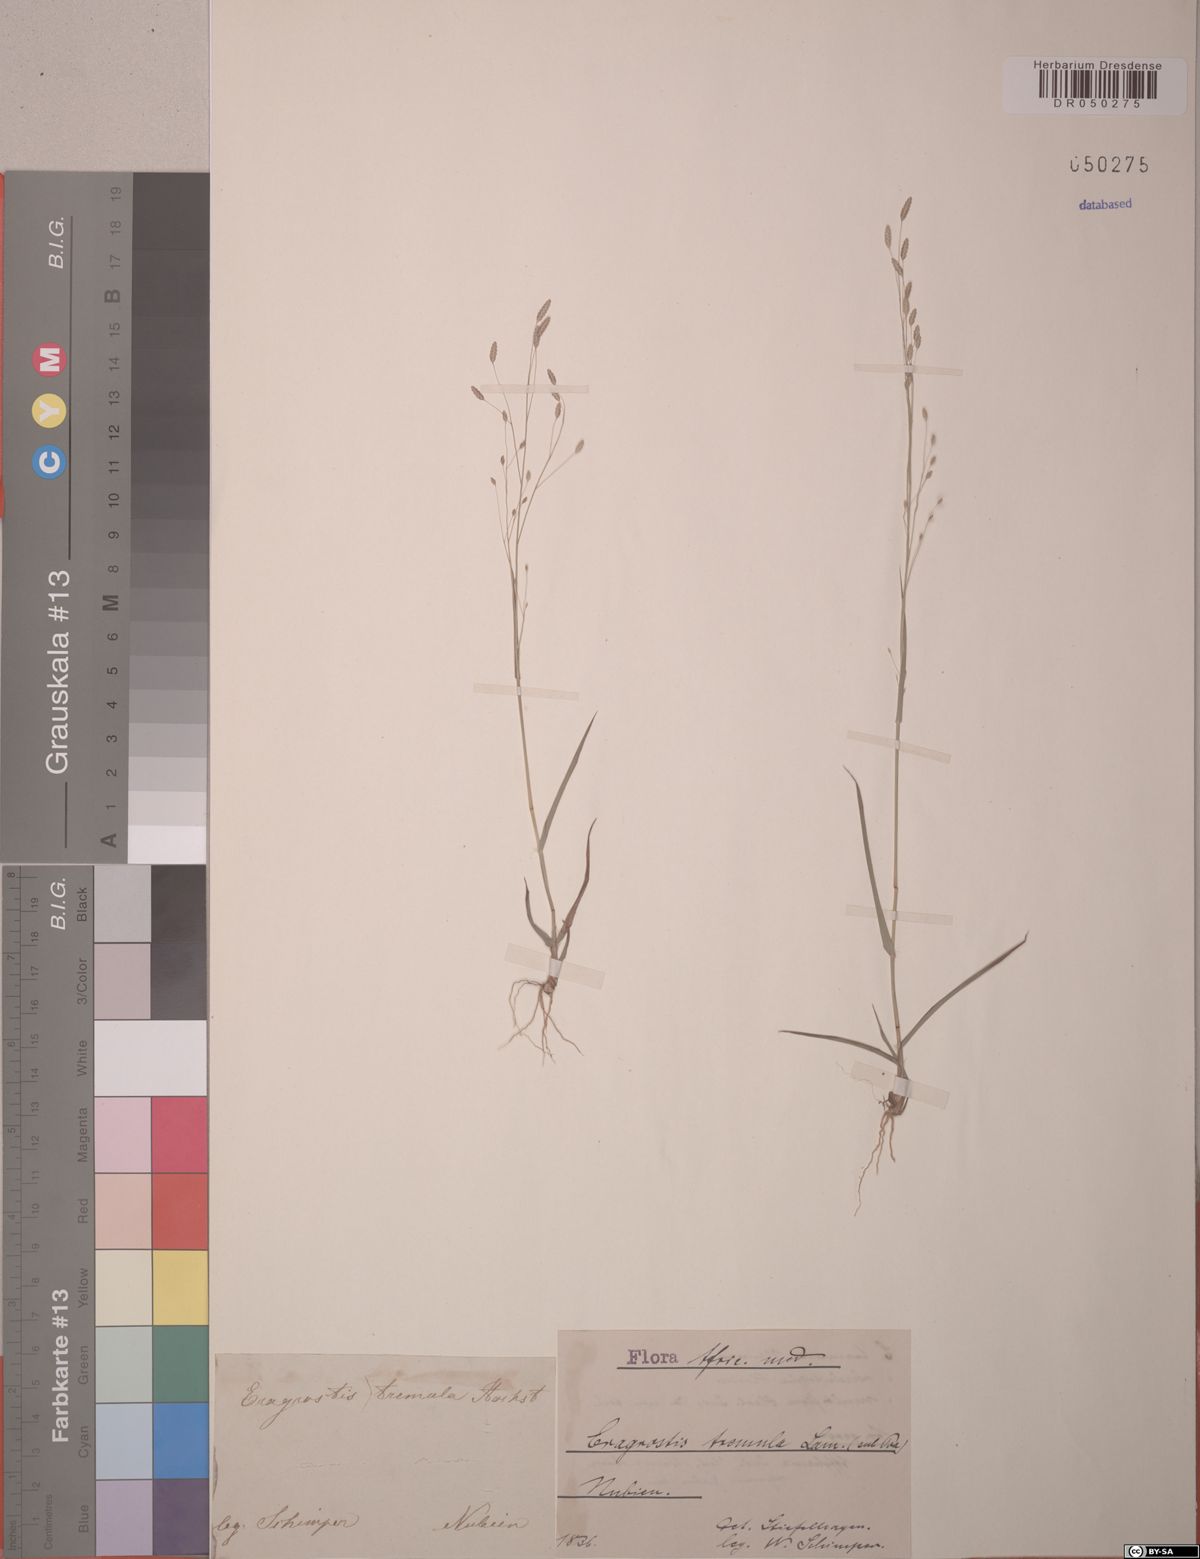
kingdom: Plantae
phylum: Tracheophyta
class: Liliopsida
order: Poales
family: Poaceae
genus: Eragrostis
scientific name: Eragrostis tremula
